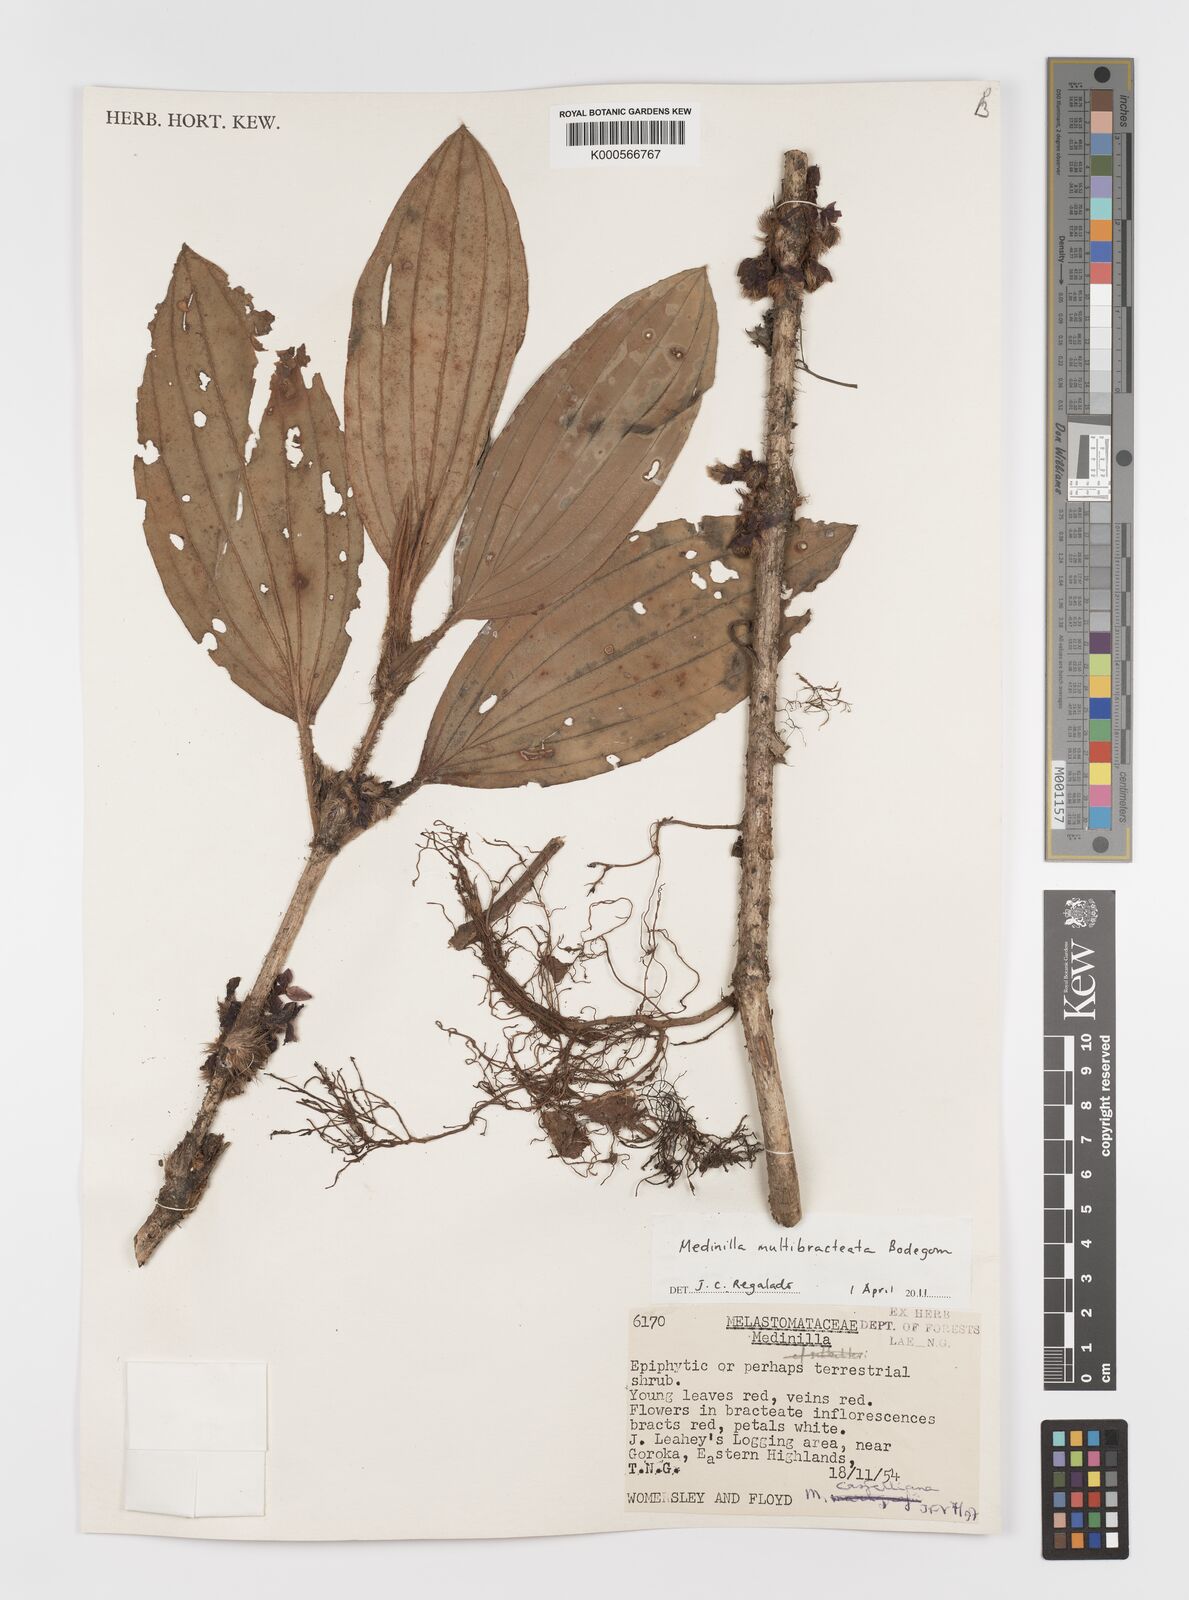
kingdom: Plantae
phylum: Tracheophyta
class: Magnoliopsida
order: Myrtales
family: Melastomataceae
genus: Medinilla
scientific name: Medinilla multibracteata
